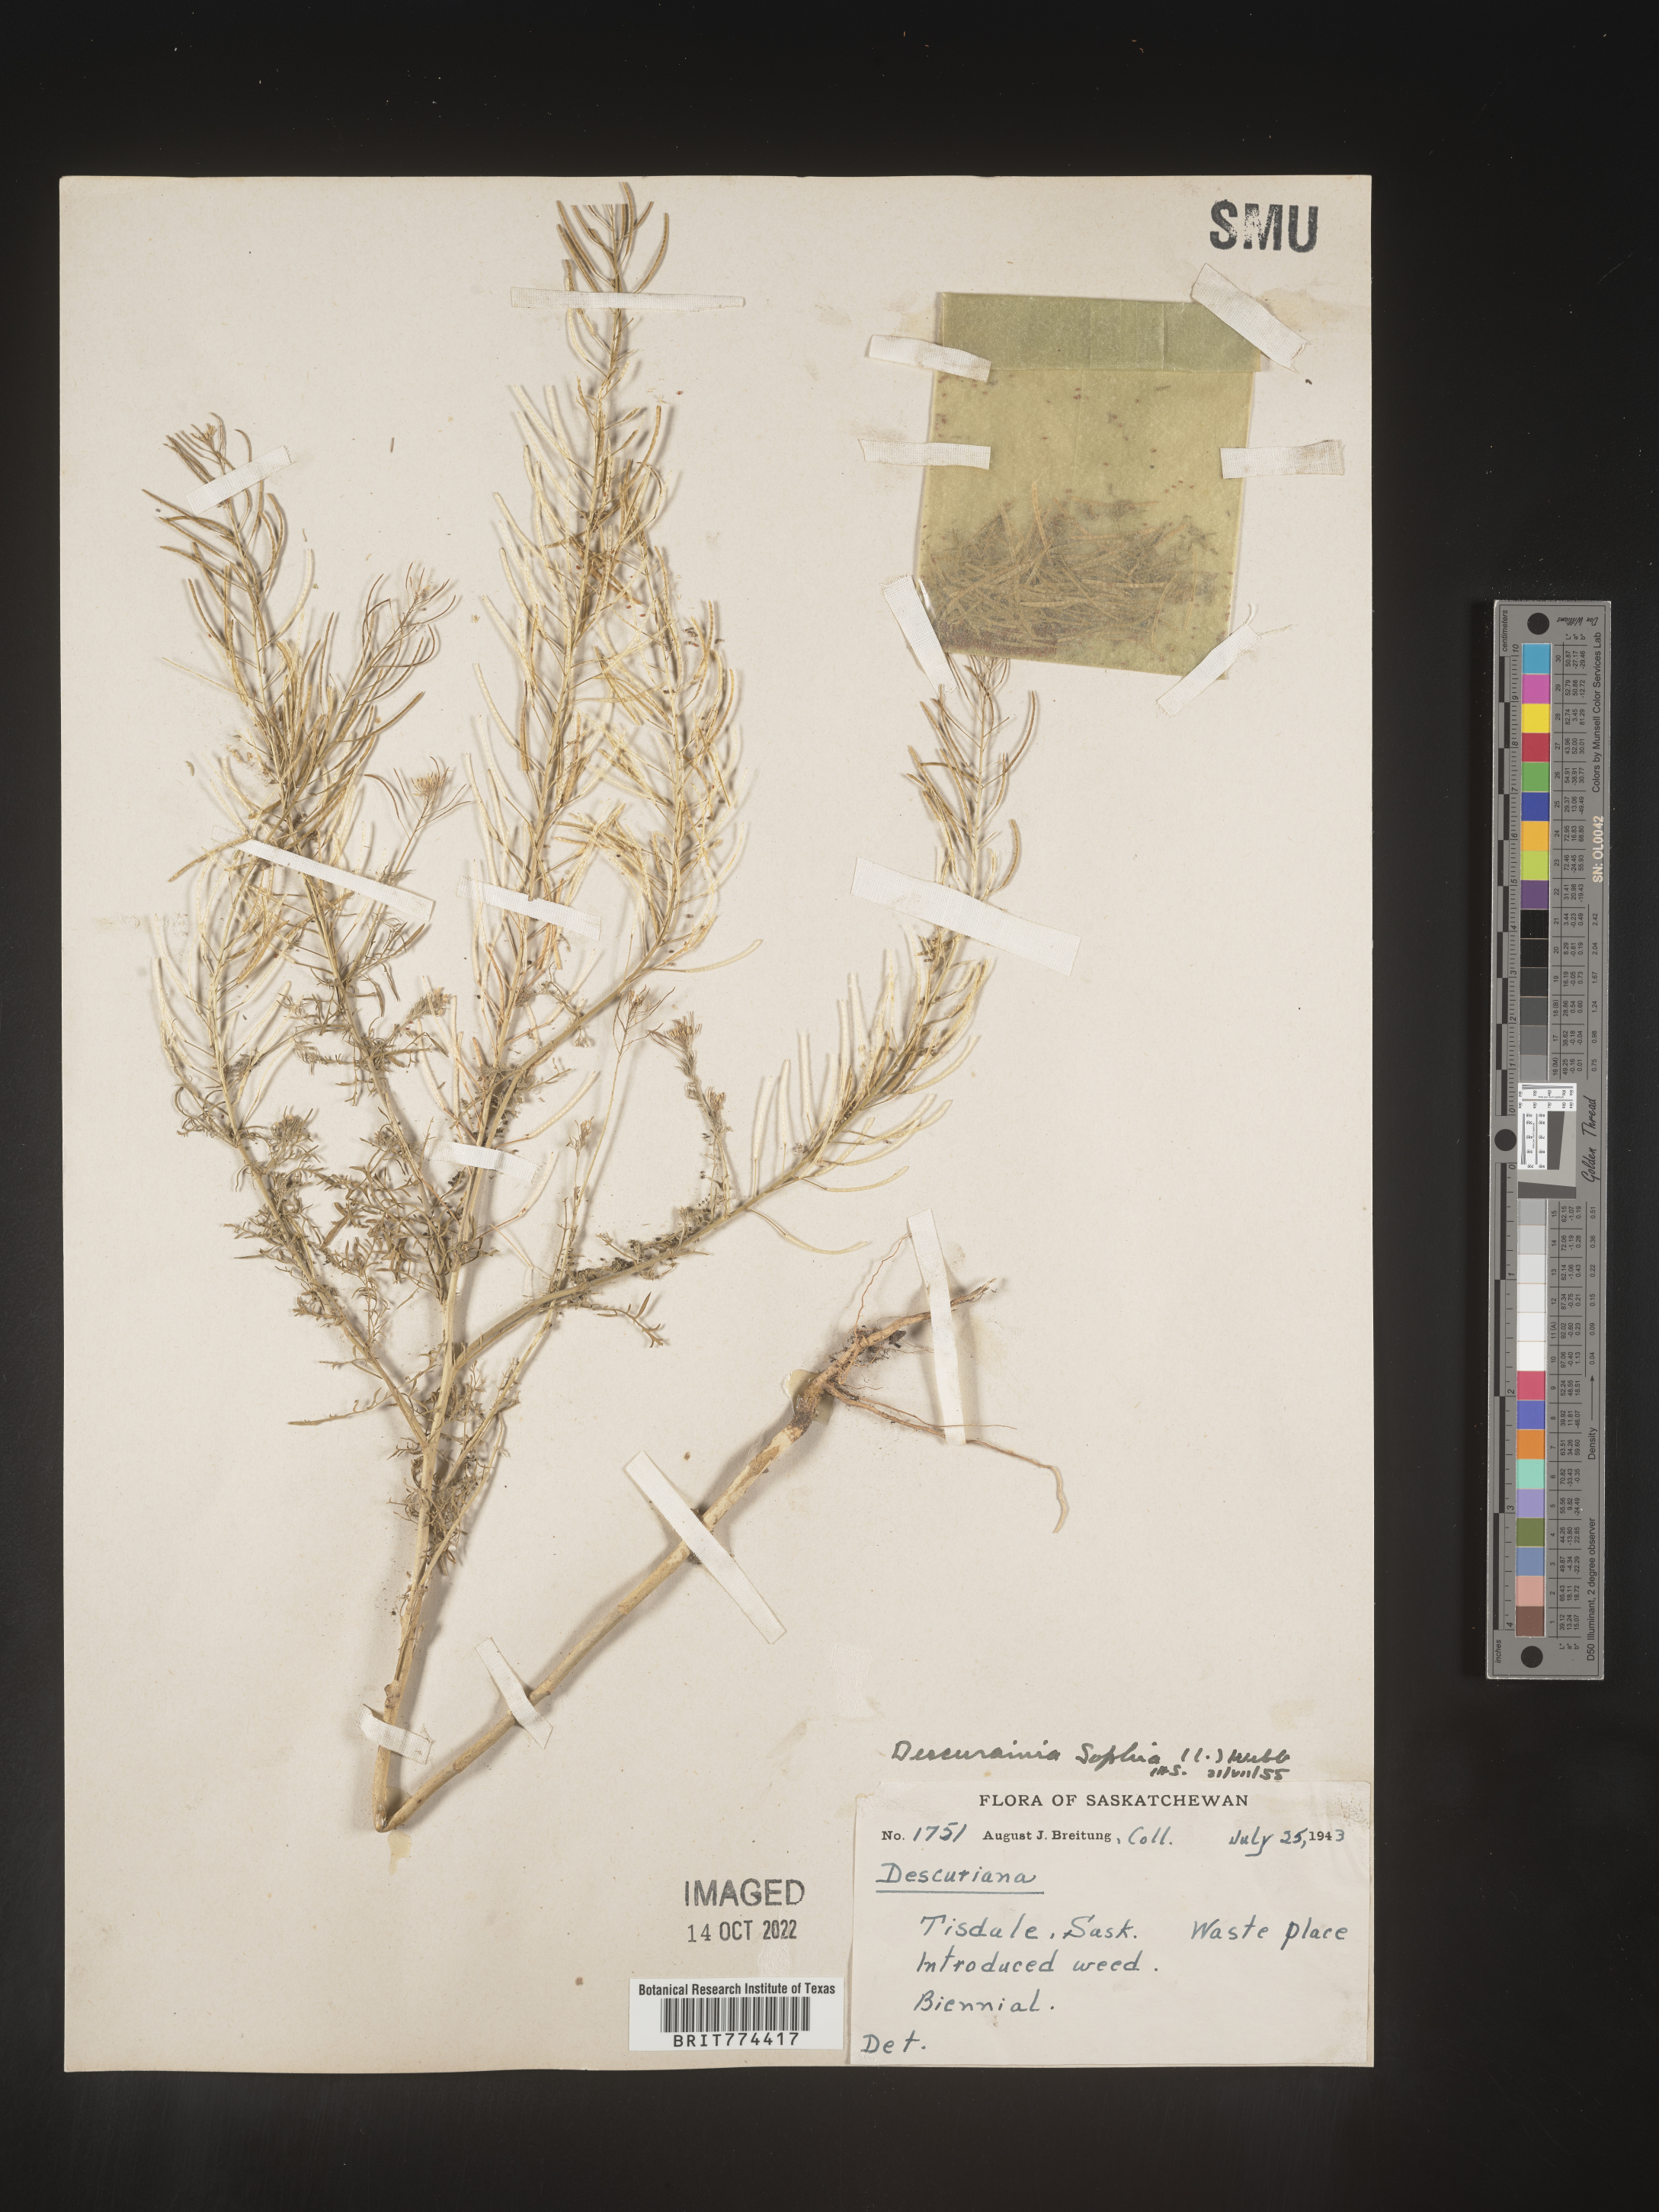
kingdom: Plantae
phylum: Tracheophyta
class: Magnoliopsida
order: Brassicales
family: Brassicaceae
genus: Descurainia
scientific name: Descurainia sophia
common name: Flixweed
